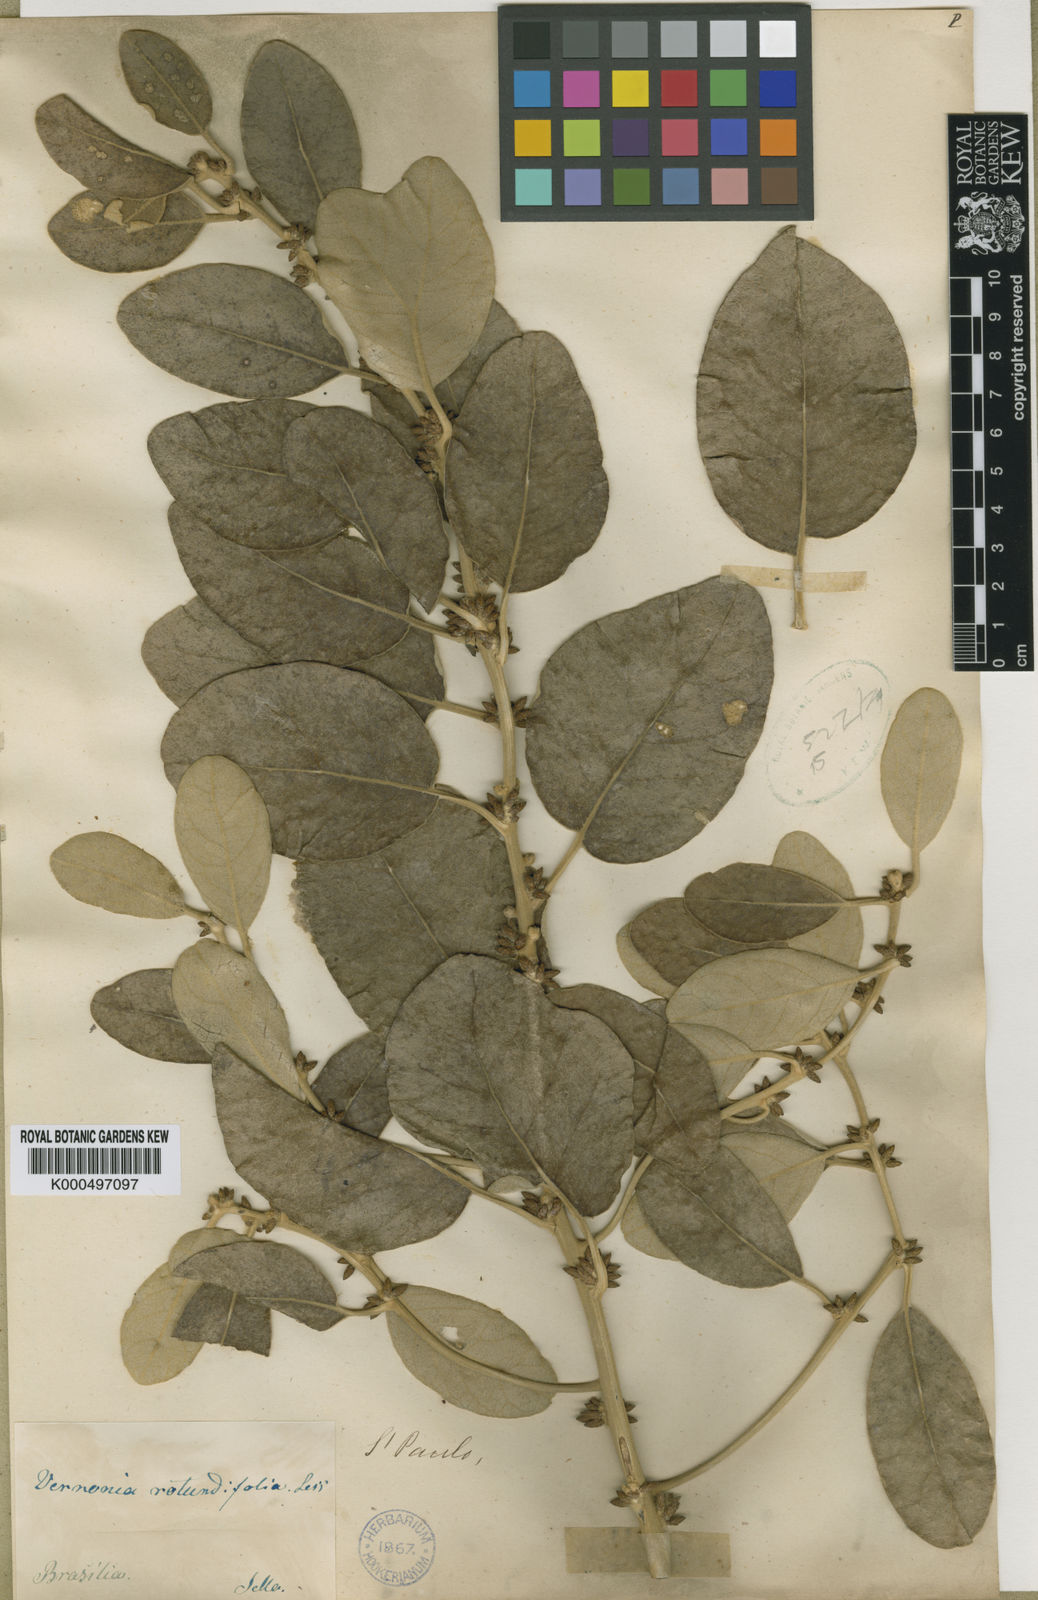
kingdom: Plantae
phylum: Tracheophyta
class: Magnoliopsida
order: Asterales
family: Asteraceae
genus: Piptocarpha
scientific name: Piptocarpha rotundifolia
